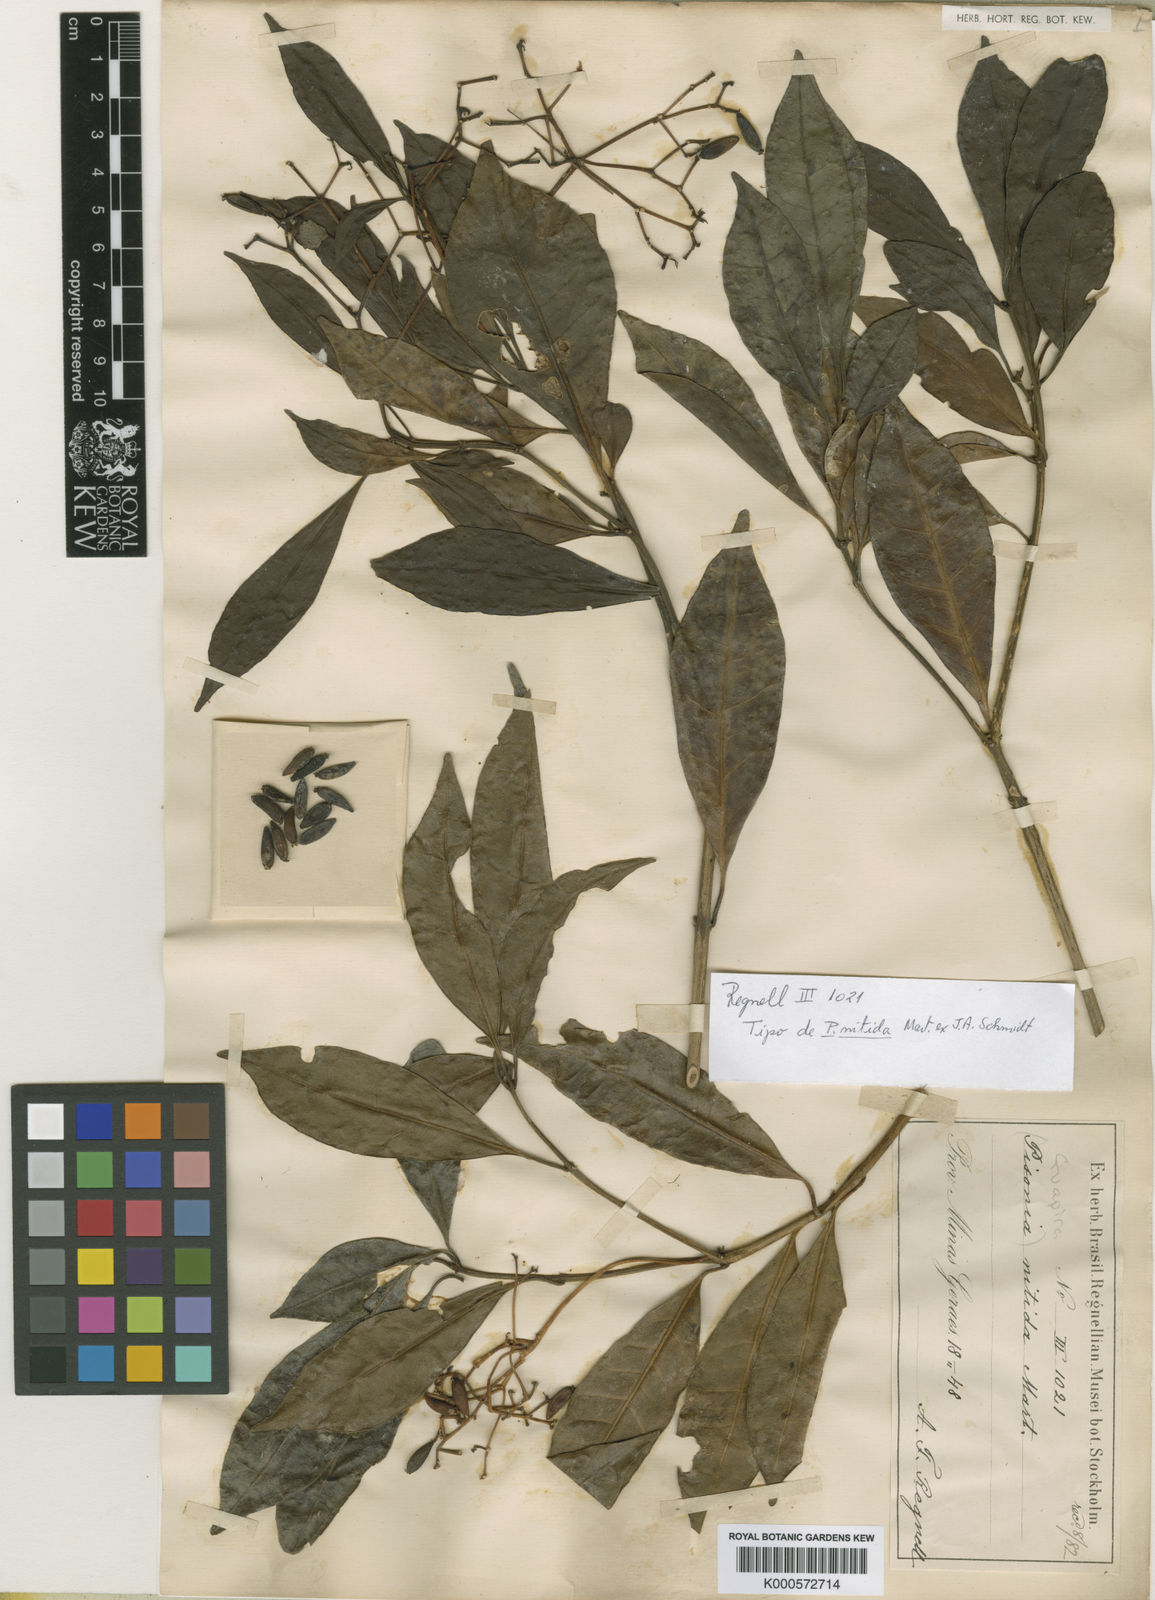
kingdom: Plantae
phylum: Tracheophyta
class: Magnoliopsida
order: Caryophyllales
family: Nyctaginaceae
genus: Guapira
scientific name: Guapira opposita
